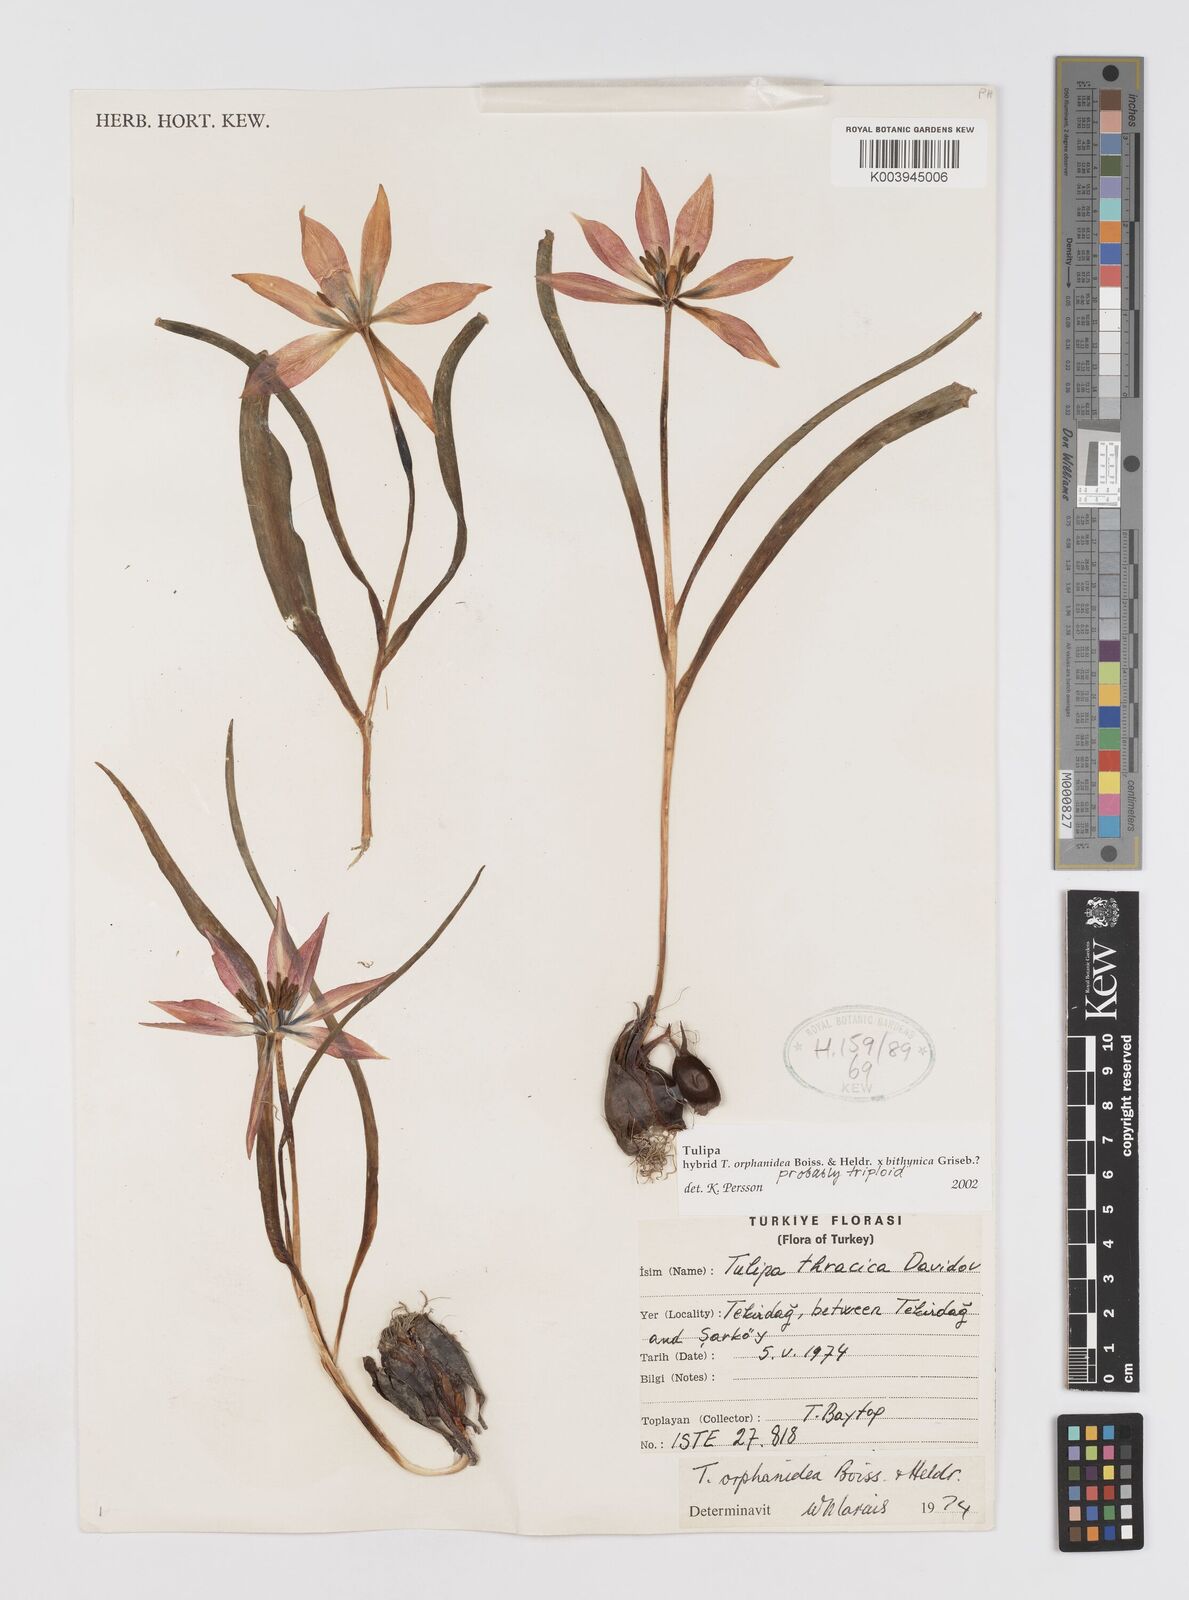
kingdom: Plantae
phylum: Tracheophyta
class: Liliopsida
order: Liliales
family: Liliaceae
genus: Tulipa
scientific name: Tulipa orphanidea
